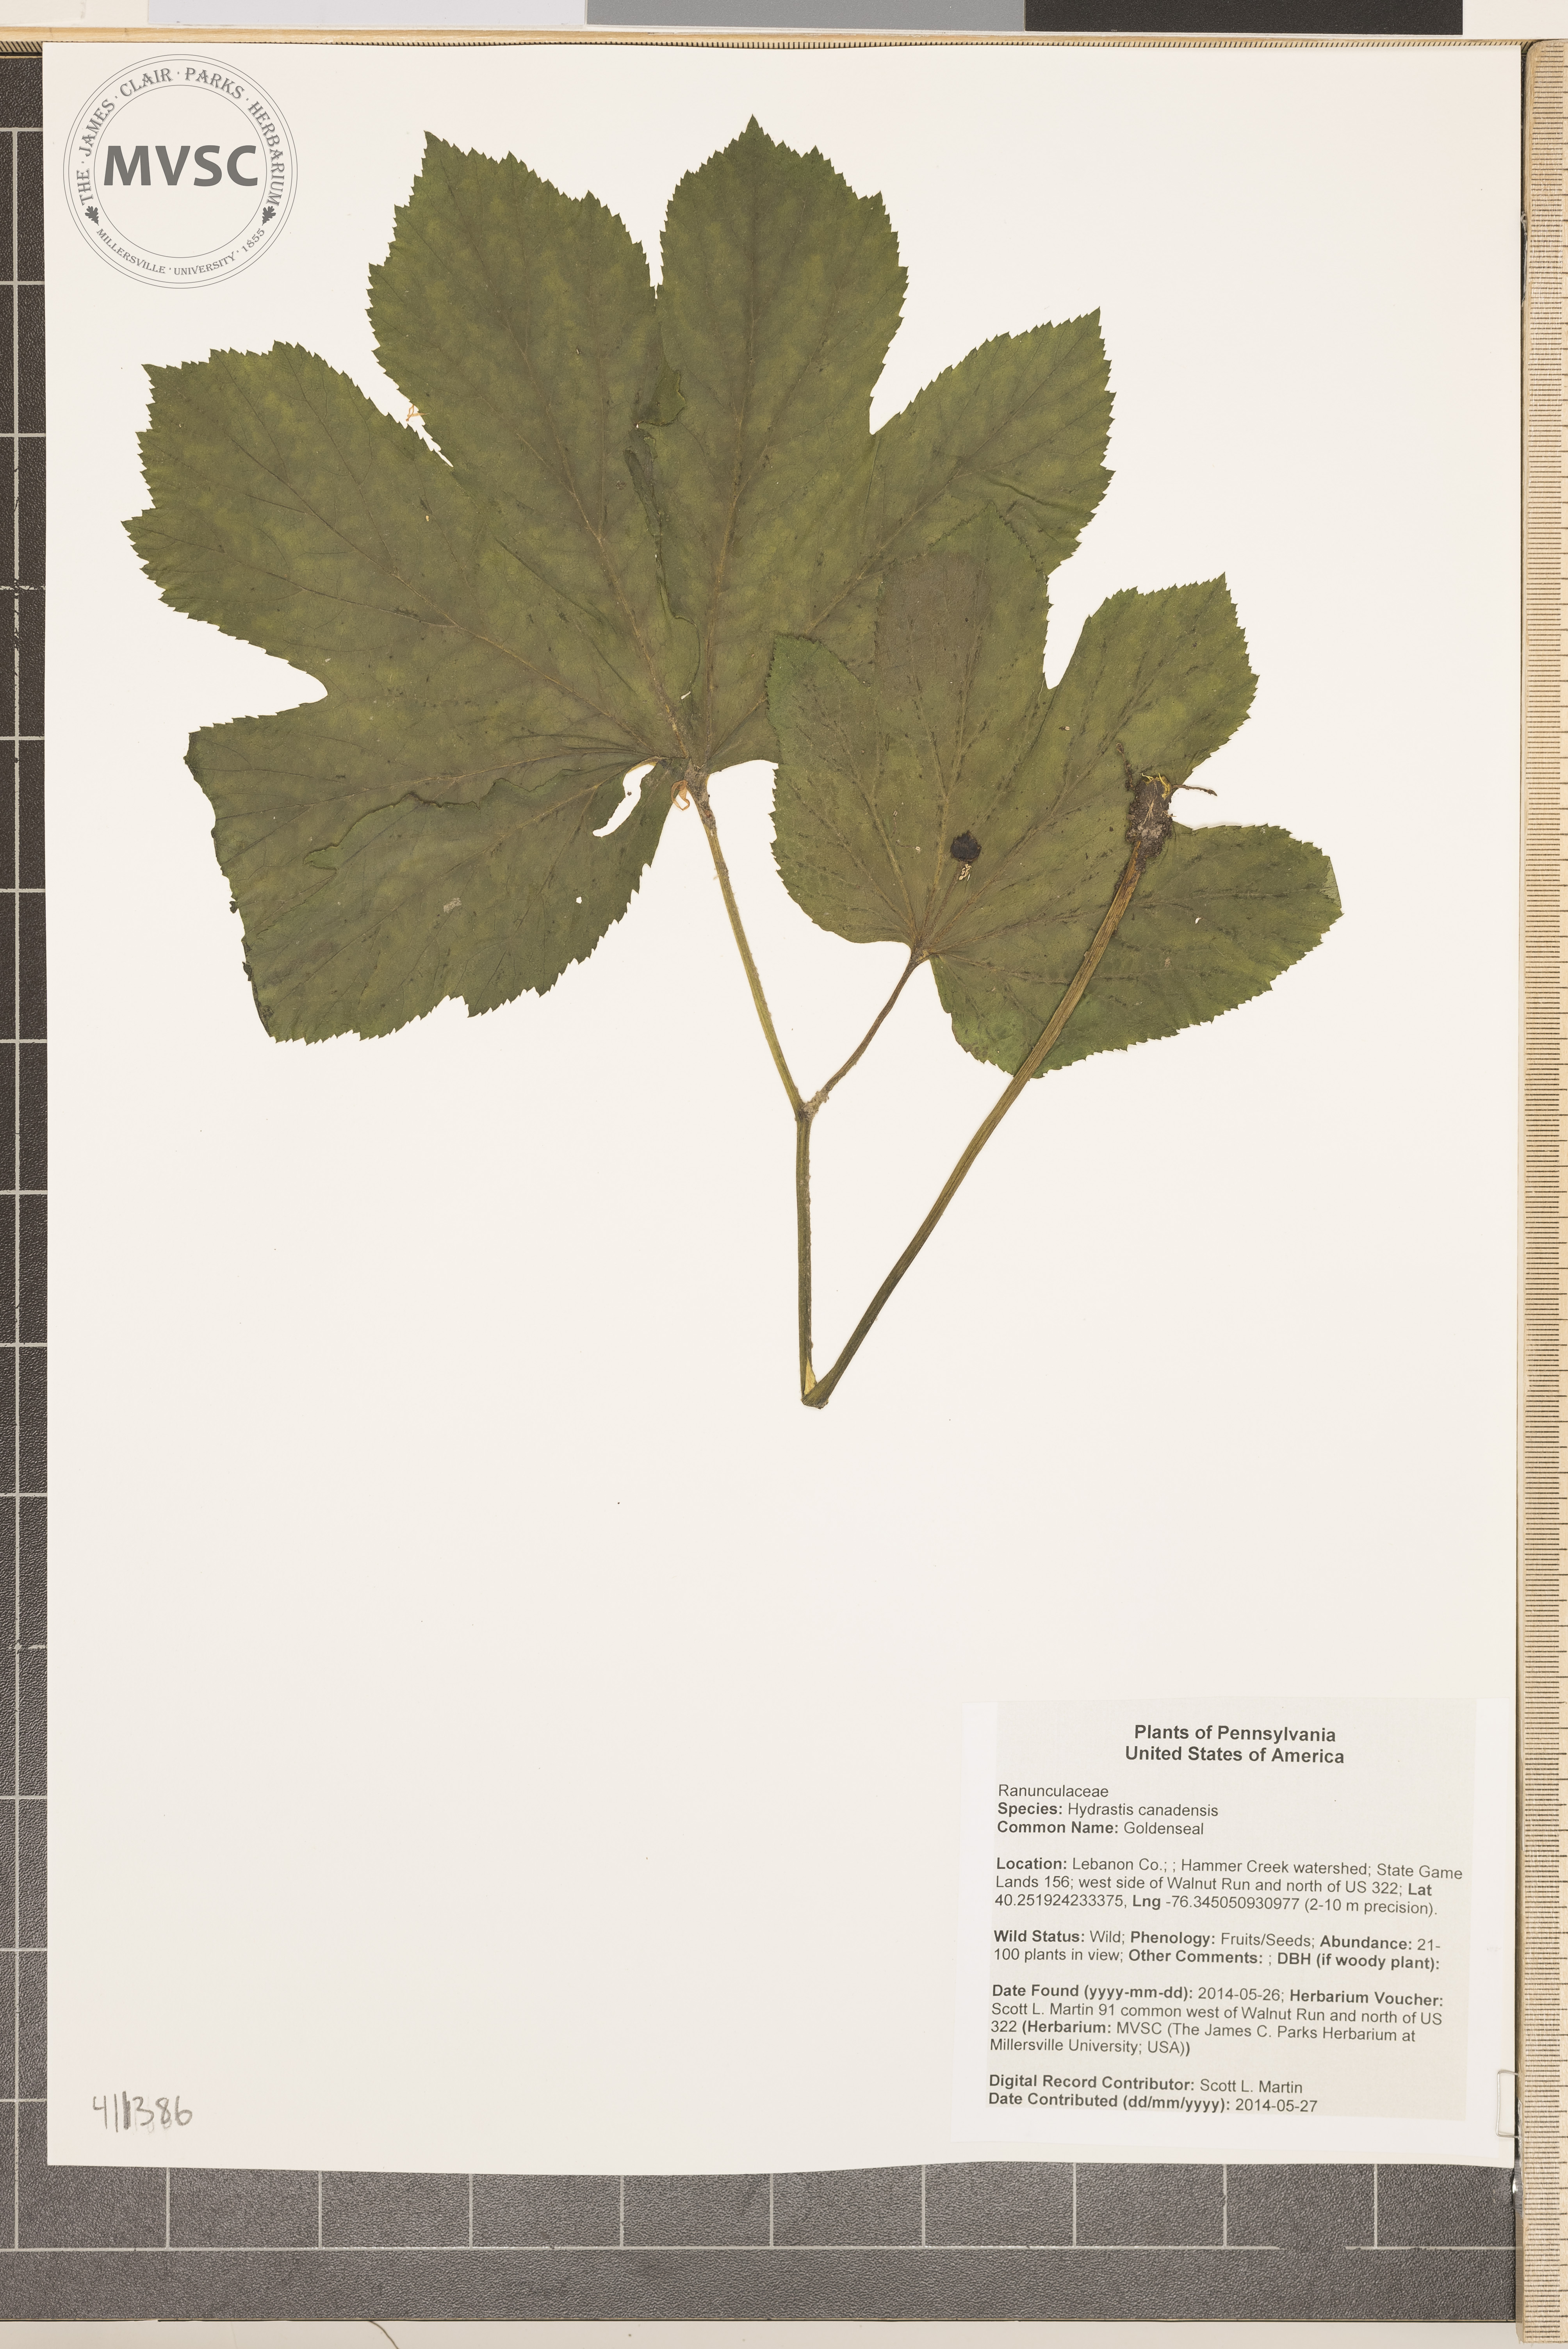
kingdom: Plantae
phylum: Tracheophyta
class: Magnoliopsida
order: Ranunculales
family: Ranunculaceae
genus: Hydrastis
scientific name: Hydrastis canadensis
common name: Goldenseal
